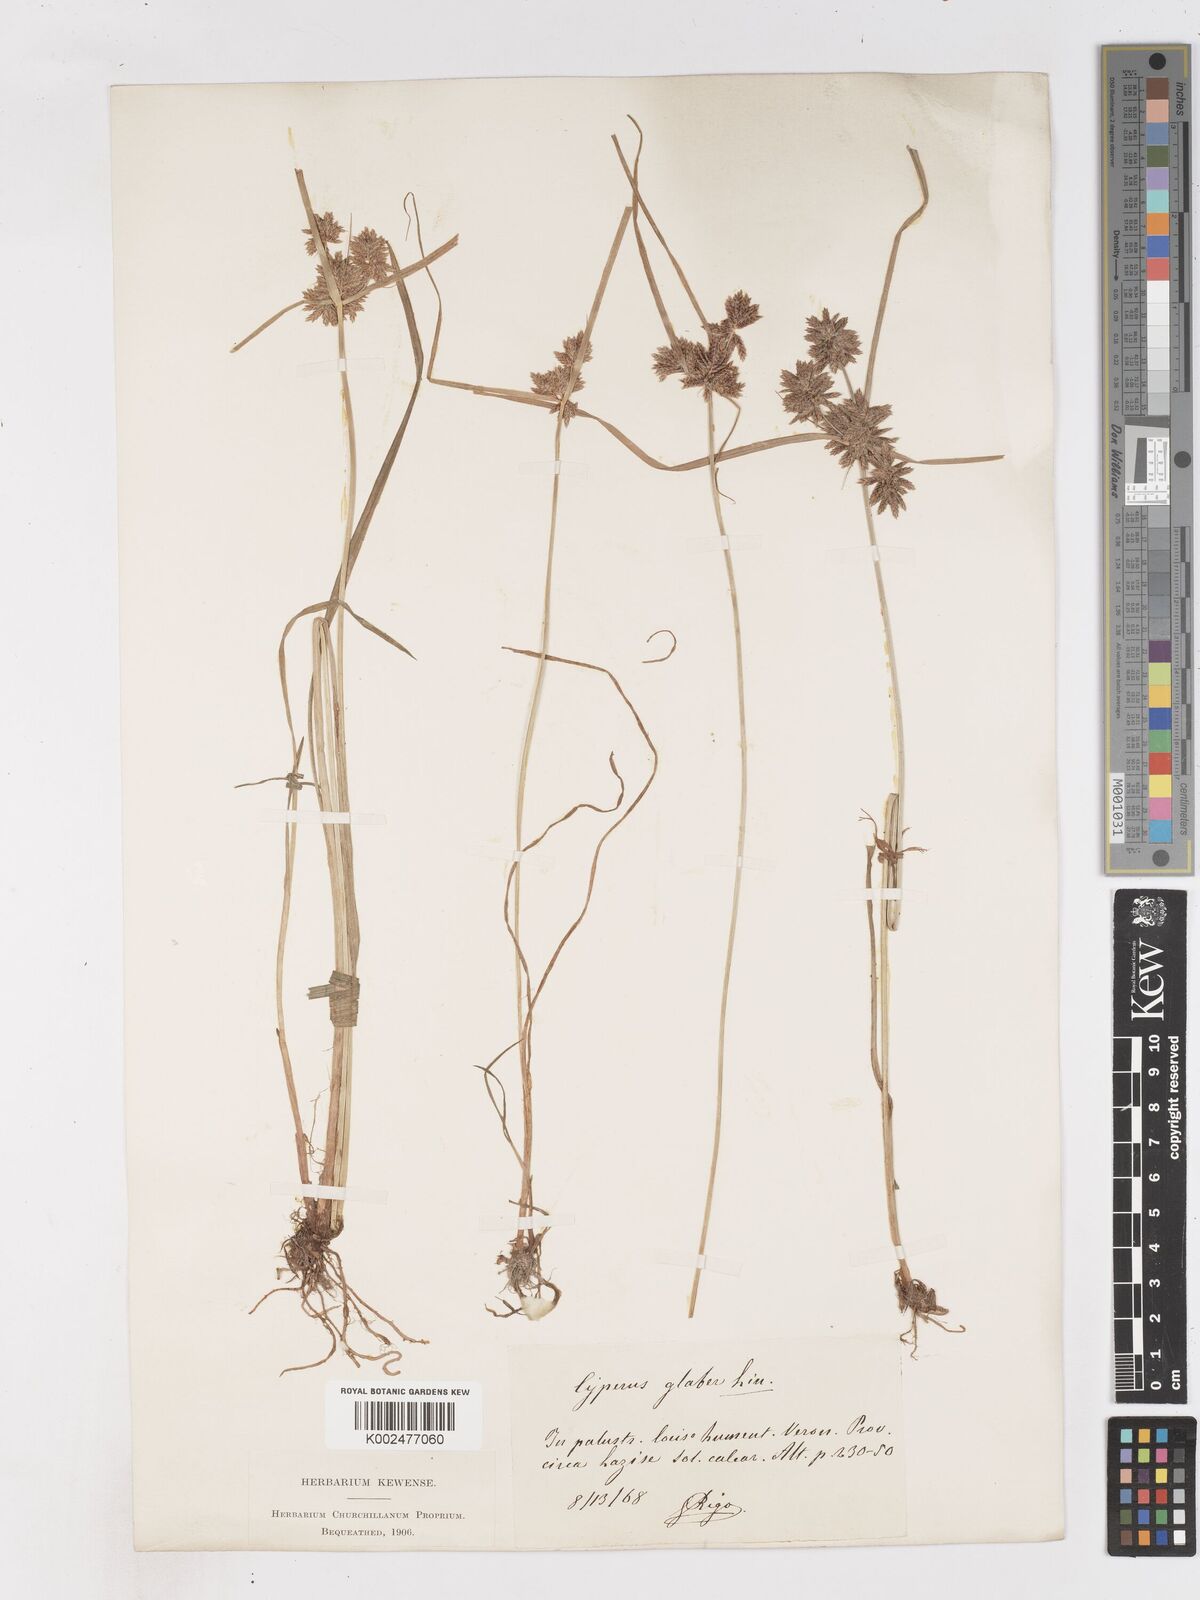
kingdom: Plantae
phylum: Tracheophyta
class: Liliopsida
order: Poales
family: Cyperaceae
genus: Cyperus
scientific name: Cyperus glaber
